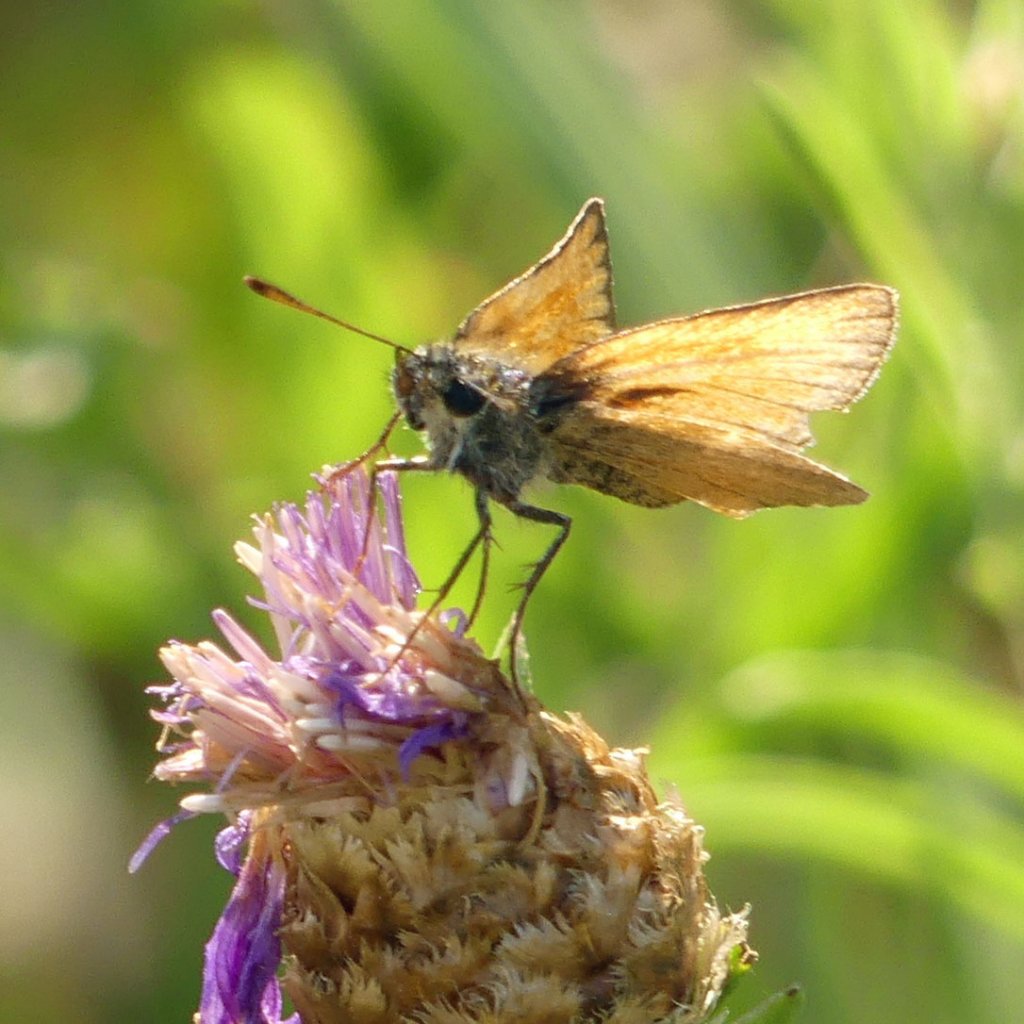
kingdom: Animalia
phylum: Arthropoda
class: Insecta
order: Lepidoptera
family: Hesperiidae
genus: Thymelicus
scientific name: Thymelicus lineola
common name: European Skipper
